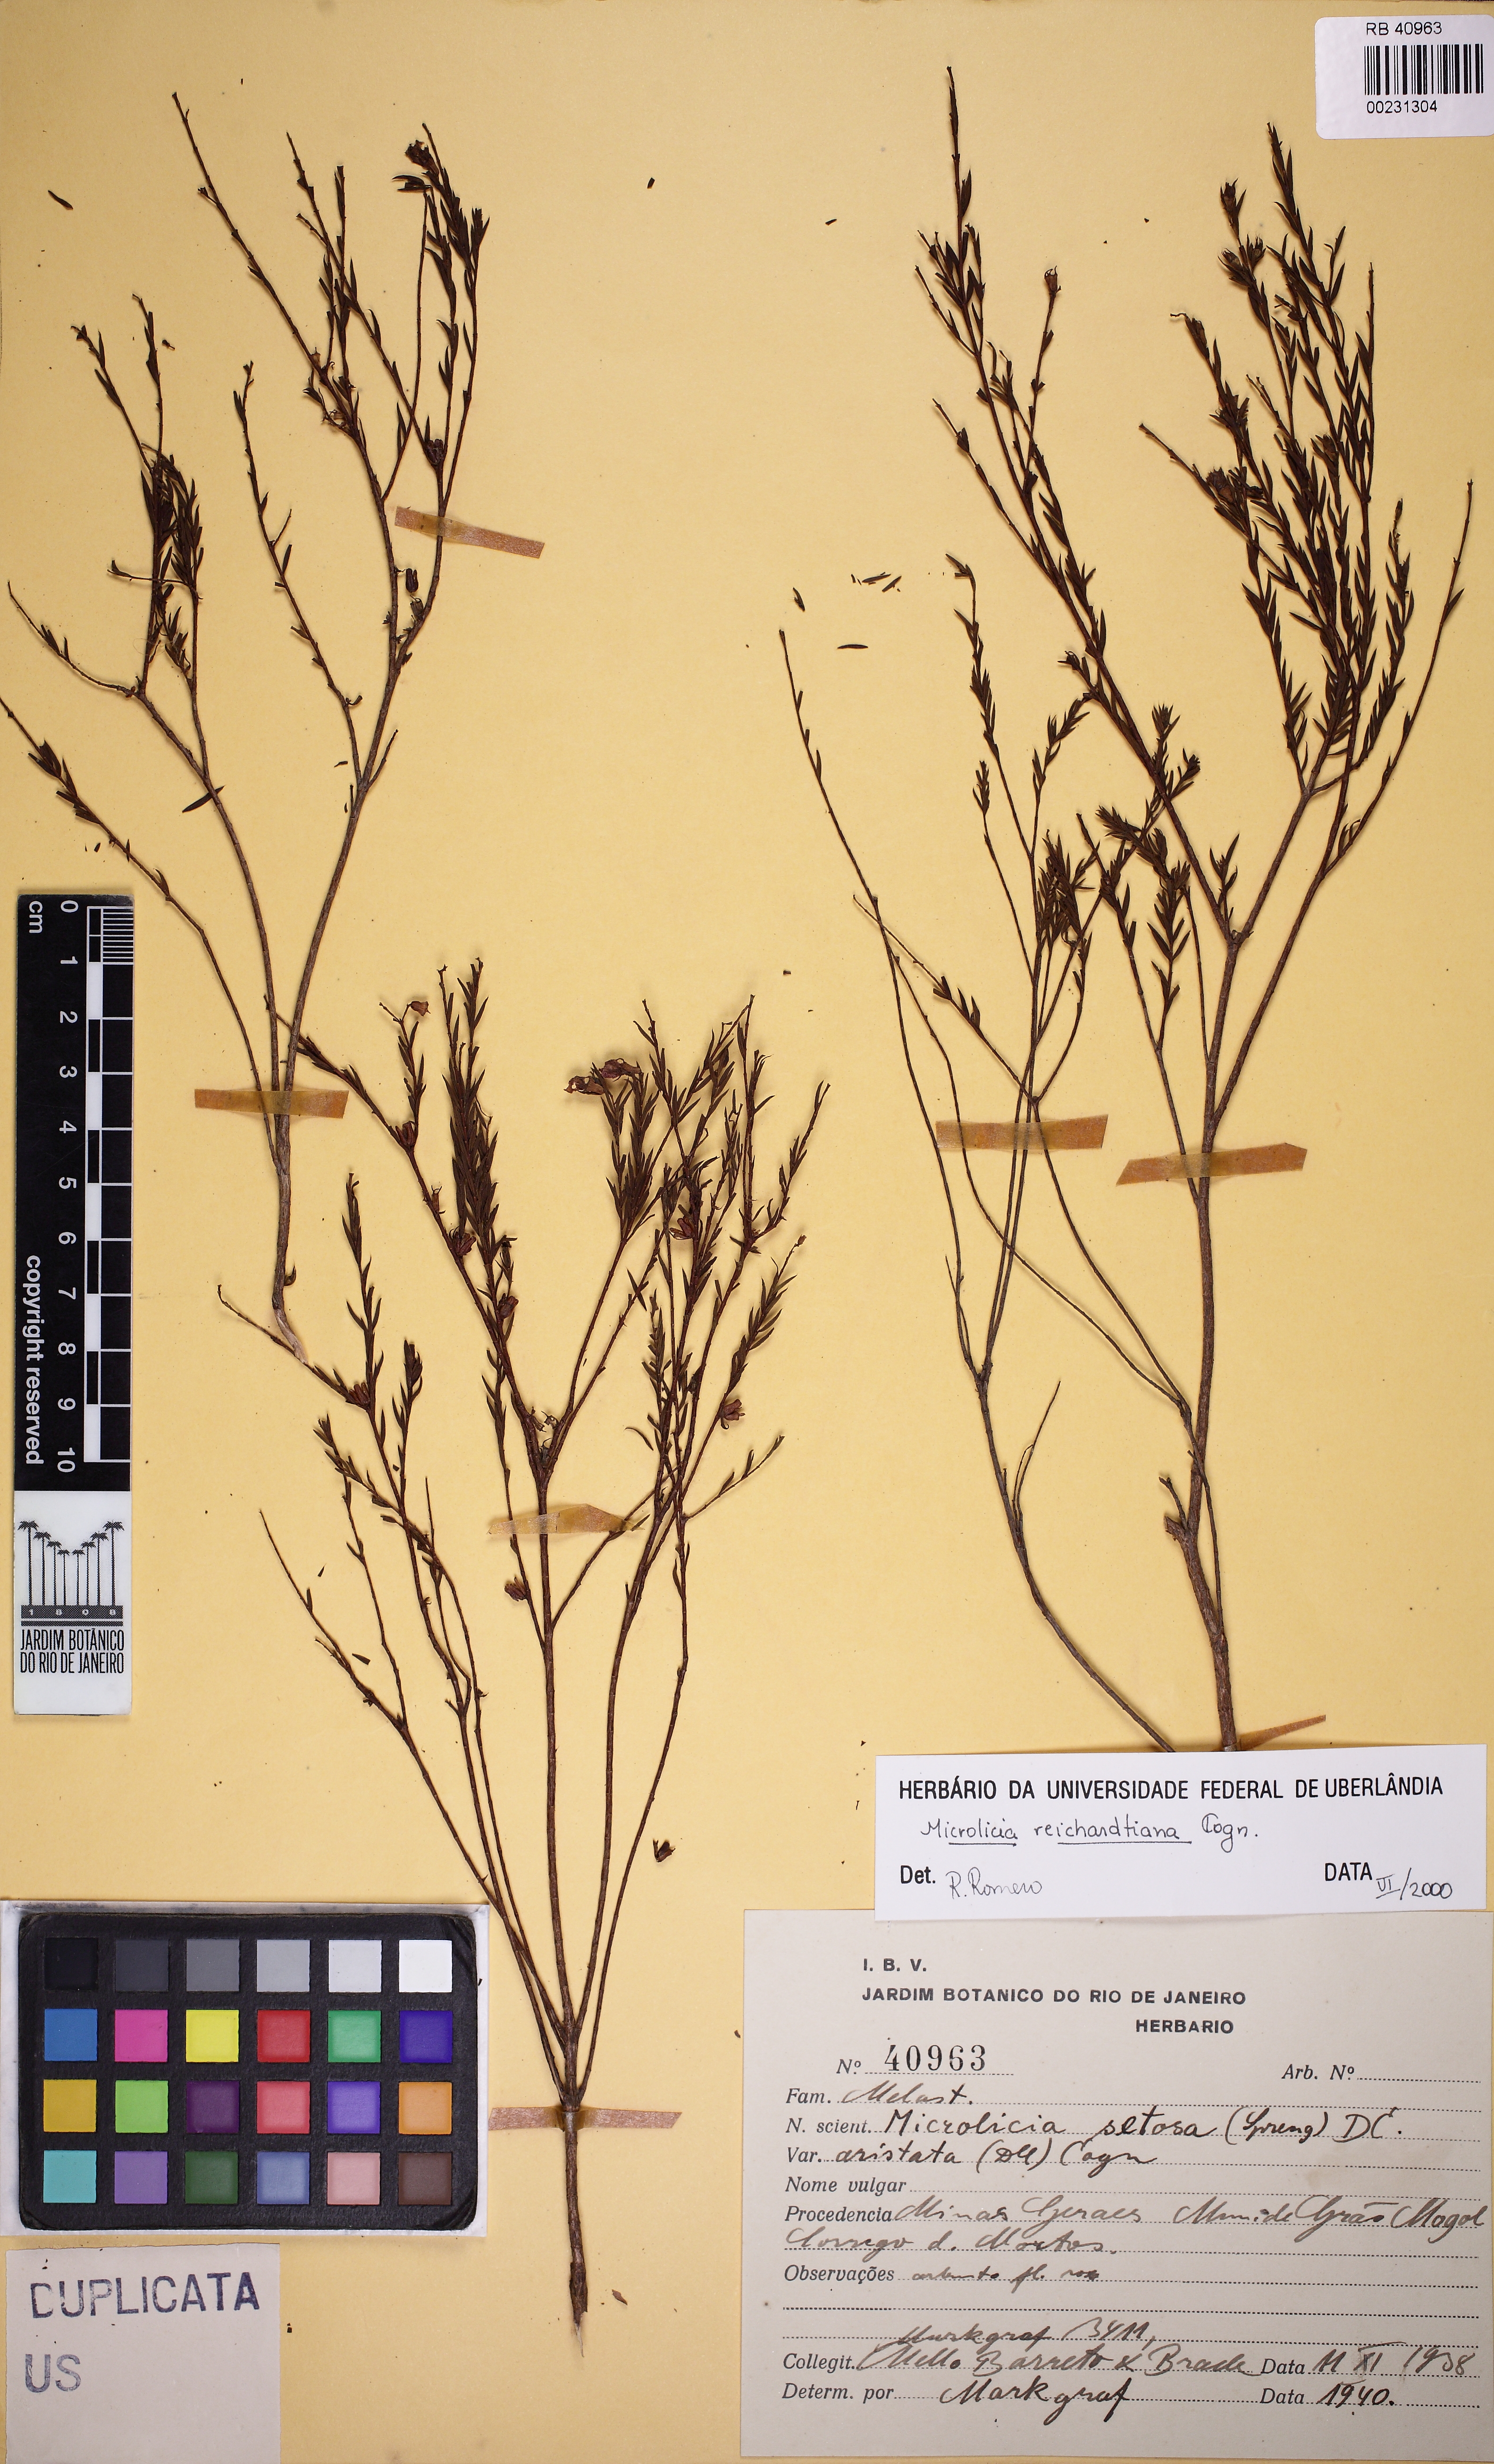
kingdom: Plantae
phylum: Tracheophyta
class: Magnoliopsida
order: Myrtales
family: Melastomataceae
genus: Microlicia
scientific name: Microlicia setosa
